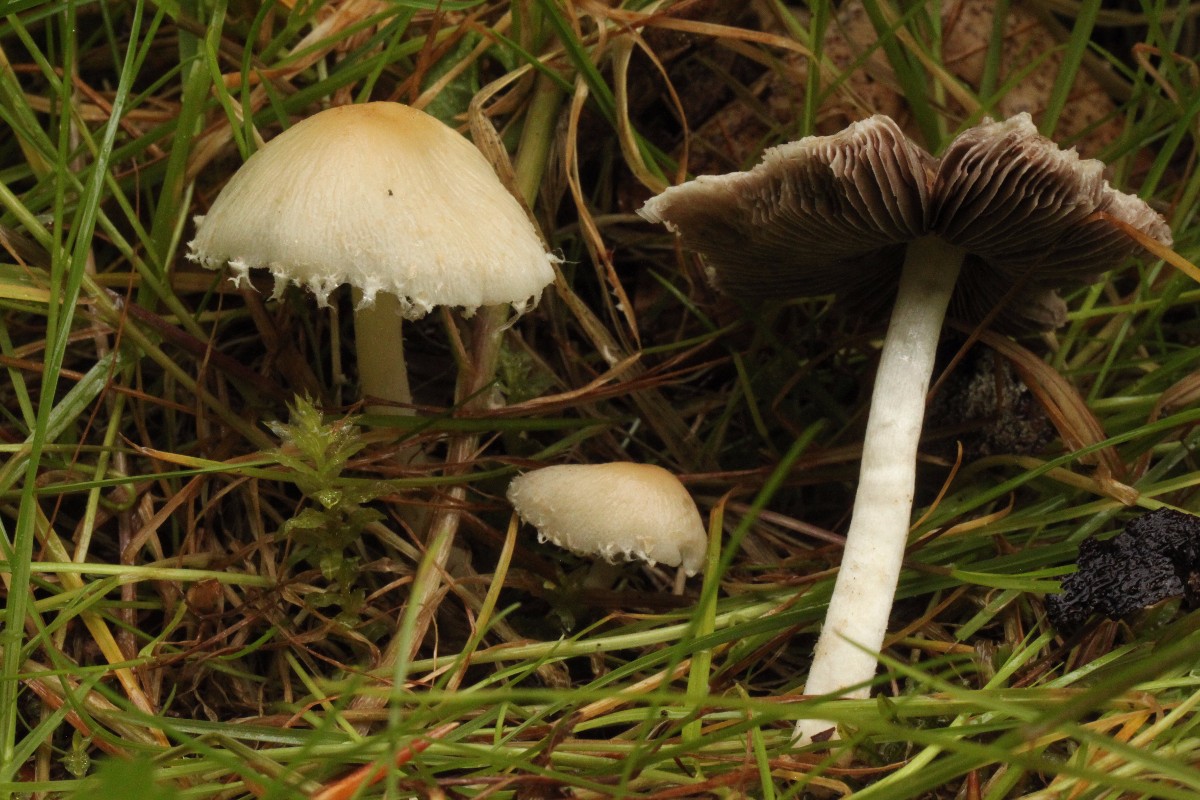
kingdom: Fungi
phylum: Basidiomycota
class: Agaricomycetes
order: Agaricales
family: Psathyrellaceae
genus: Candolleomyces
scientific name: Candolleomyces candolleanus
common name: Candolles mørkhat
